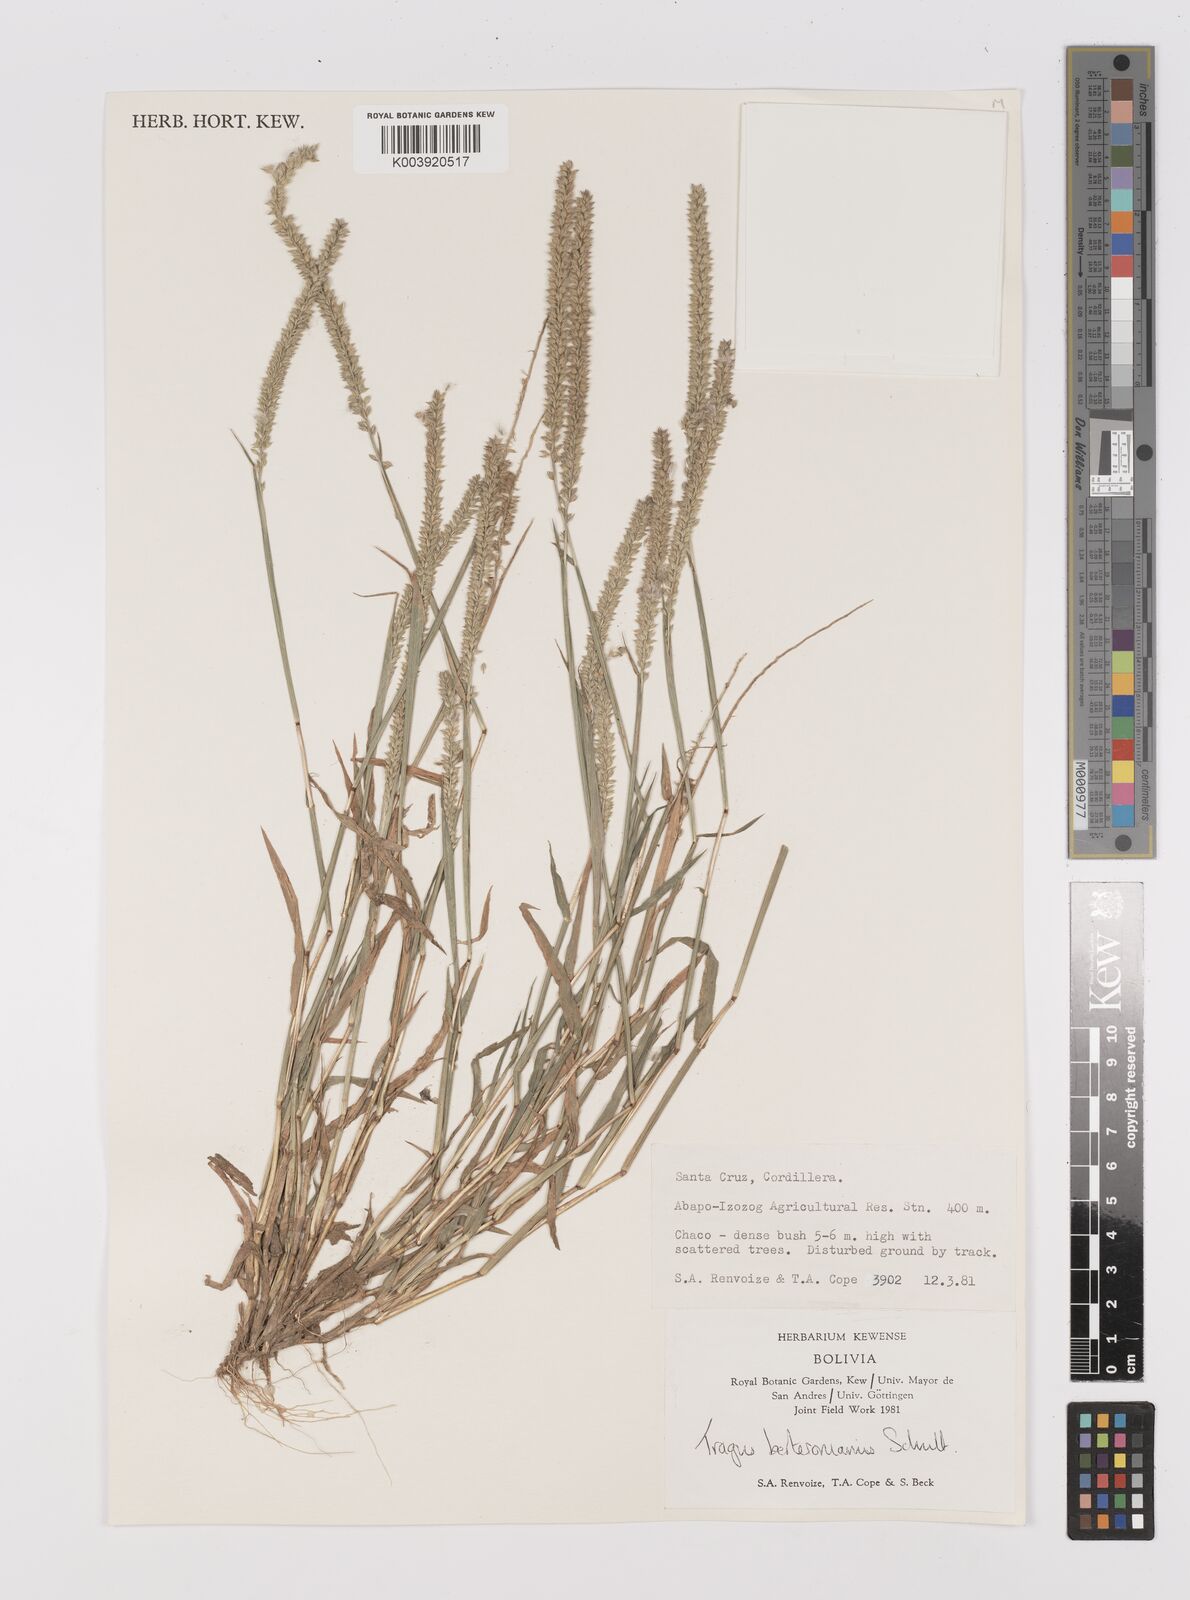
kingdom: Plantae
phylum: Tracheophyta
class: Liliopsida
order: Poales
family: Poaceae
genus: Tragus
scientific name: Tragus berteronianus
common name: African bur-grass
